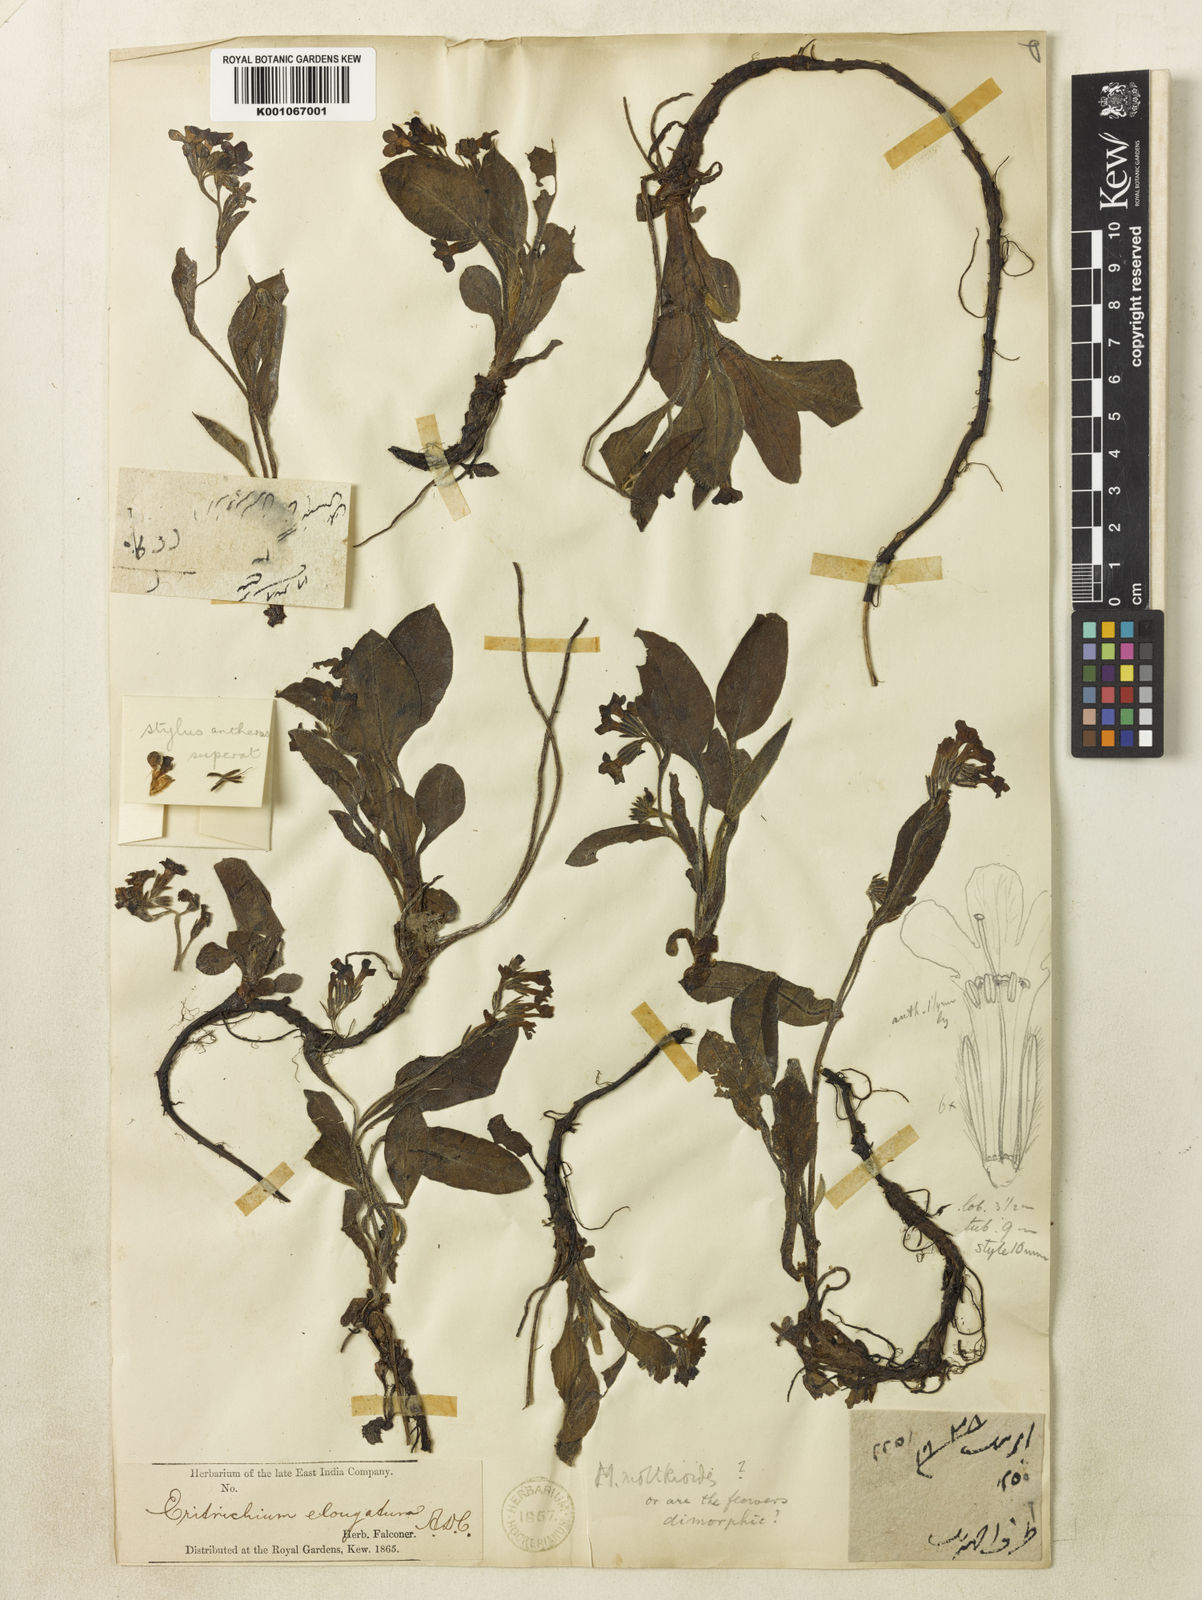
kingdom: Plantae
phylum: Tracheophyta
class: Magnoliopsida
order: Boraginales
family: Boraginaceae
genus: Decalepidanthus
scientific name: Decalepidanthus moltkioides
